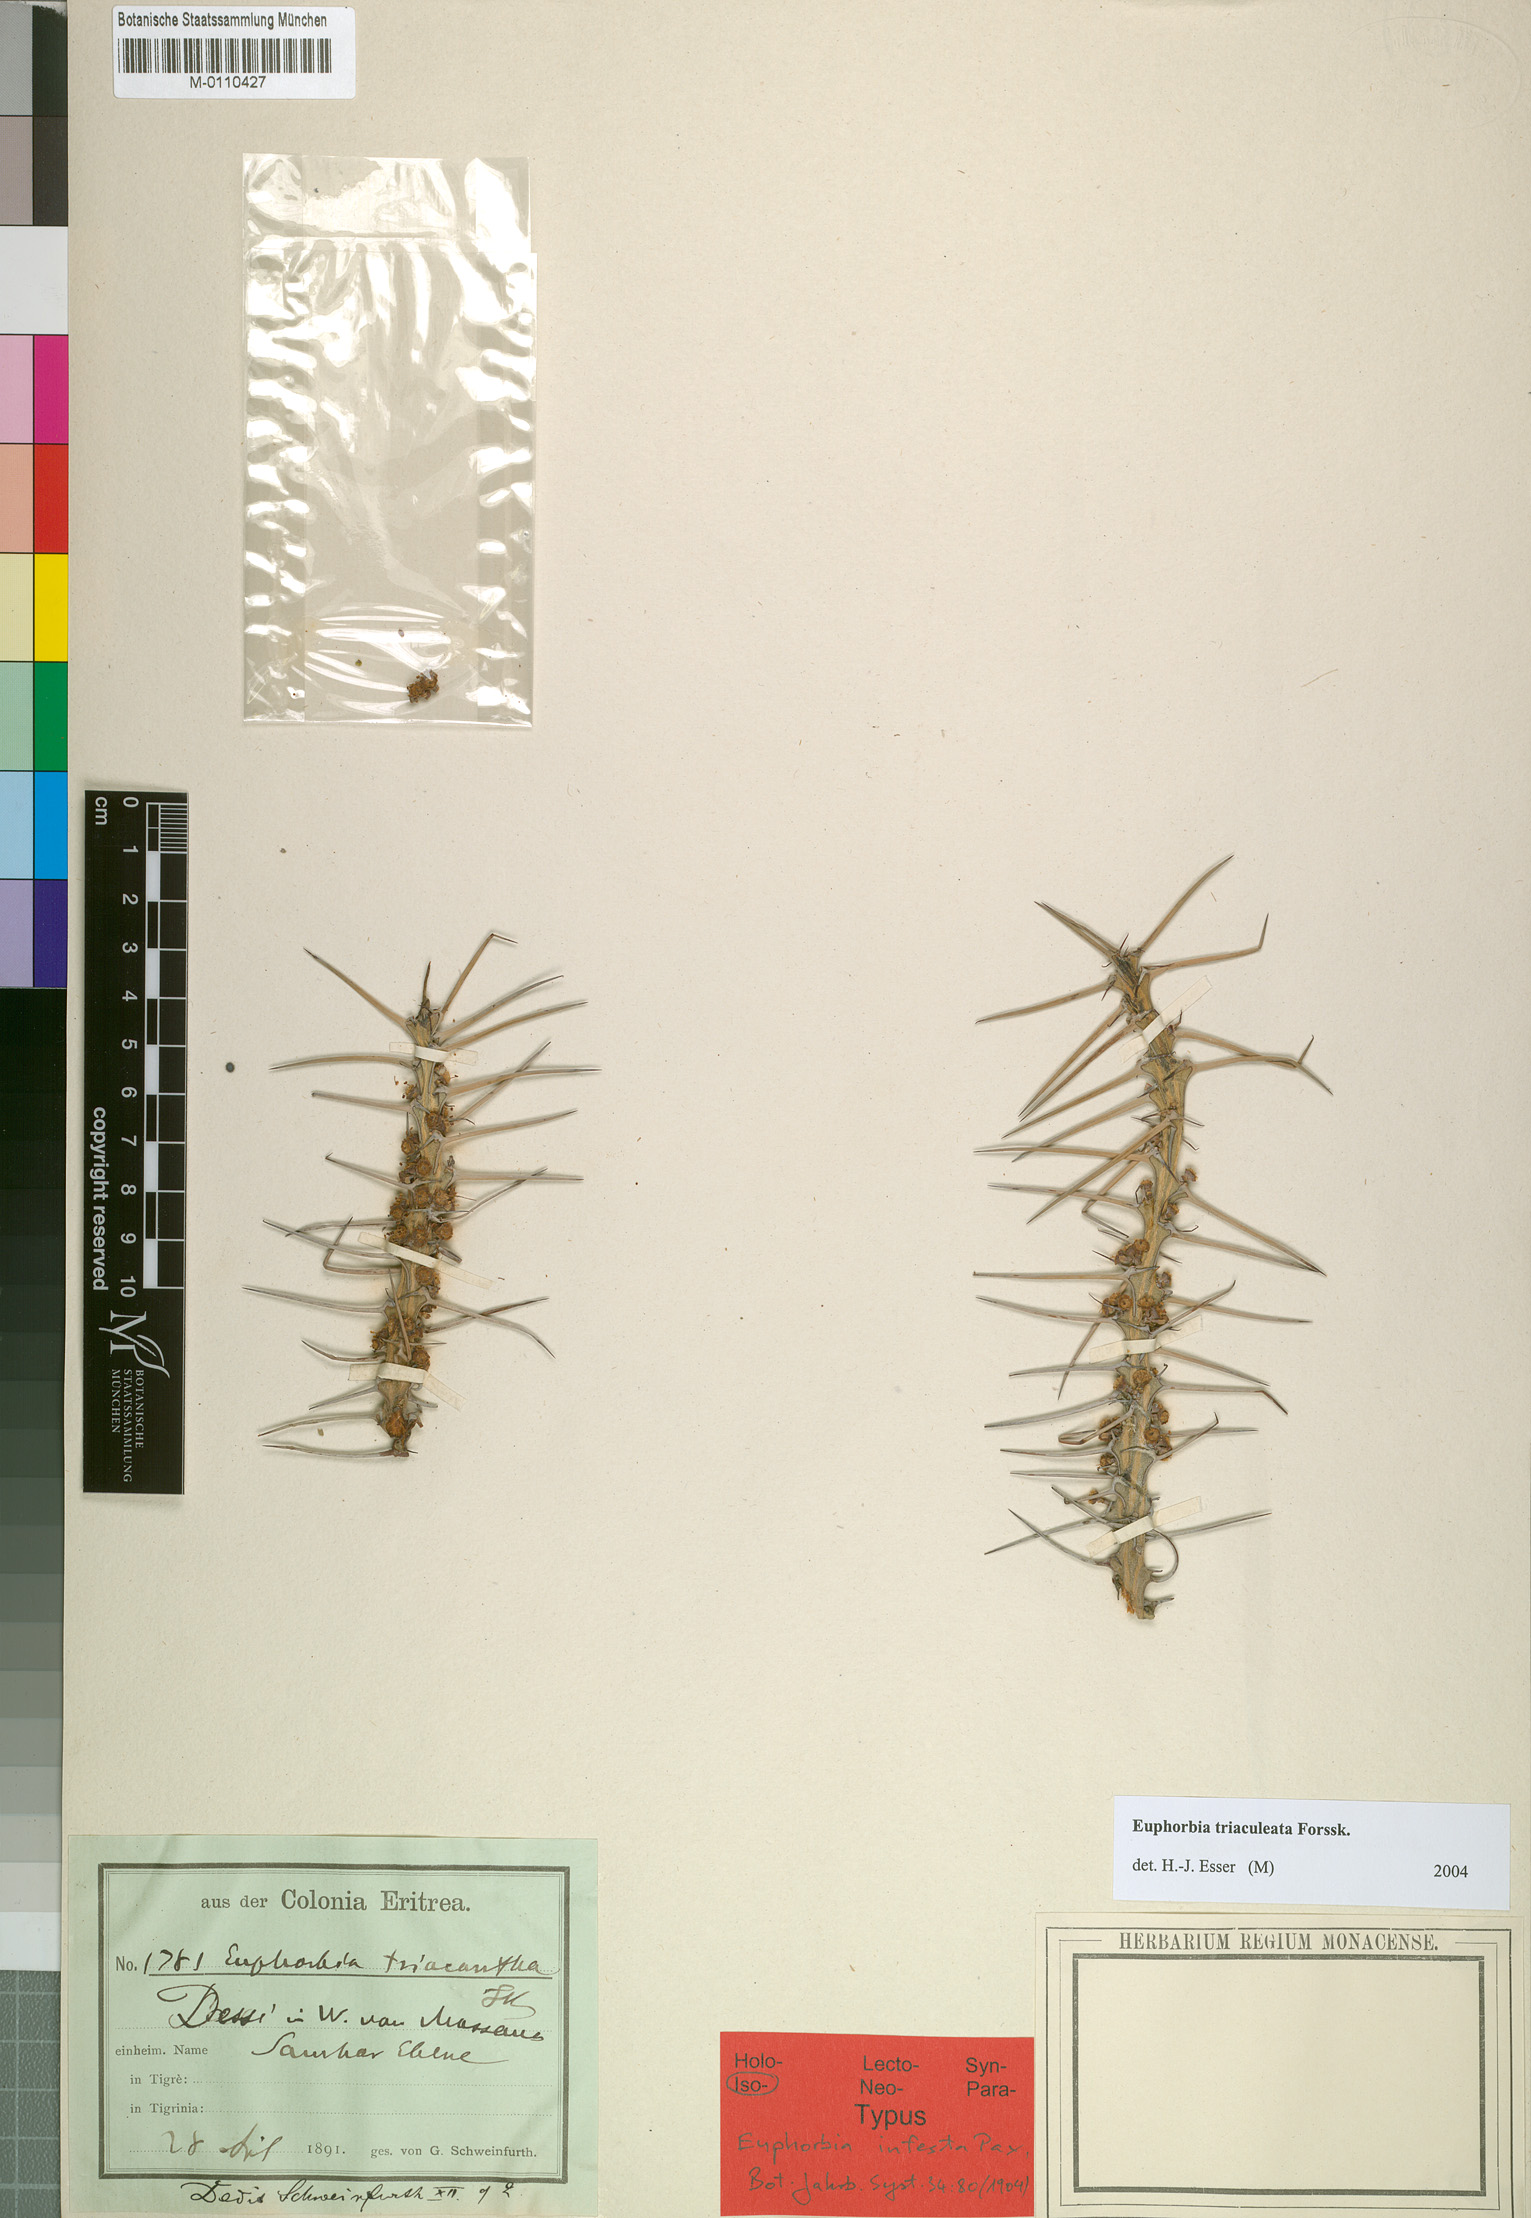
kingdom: Plantae
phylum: Tracheophyta
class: Magnoliopsida
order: Malpighiales
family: Euphorbiaceae
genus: Euphorbia
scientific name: Euphorbia triaculeata
